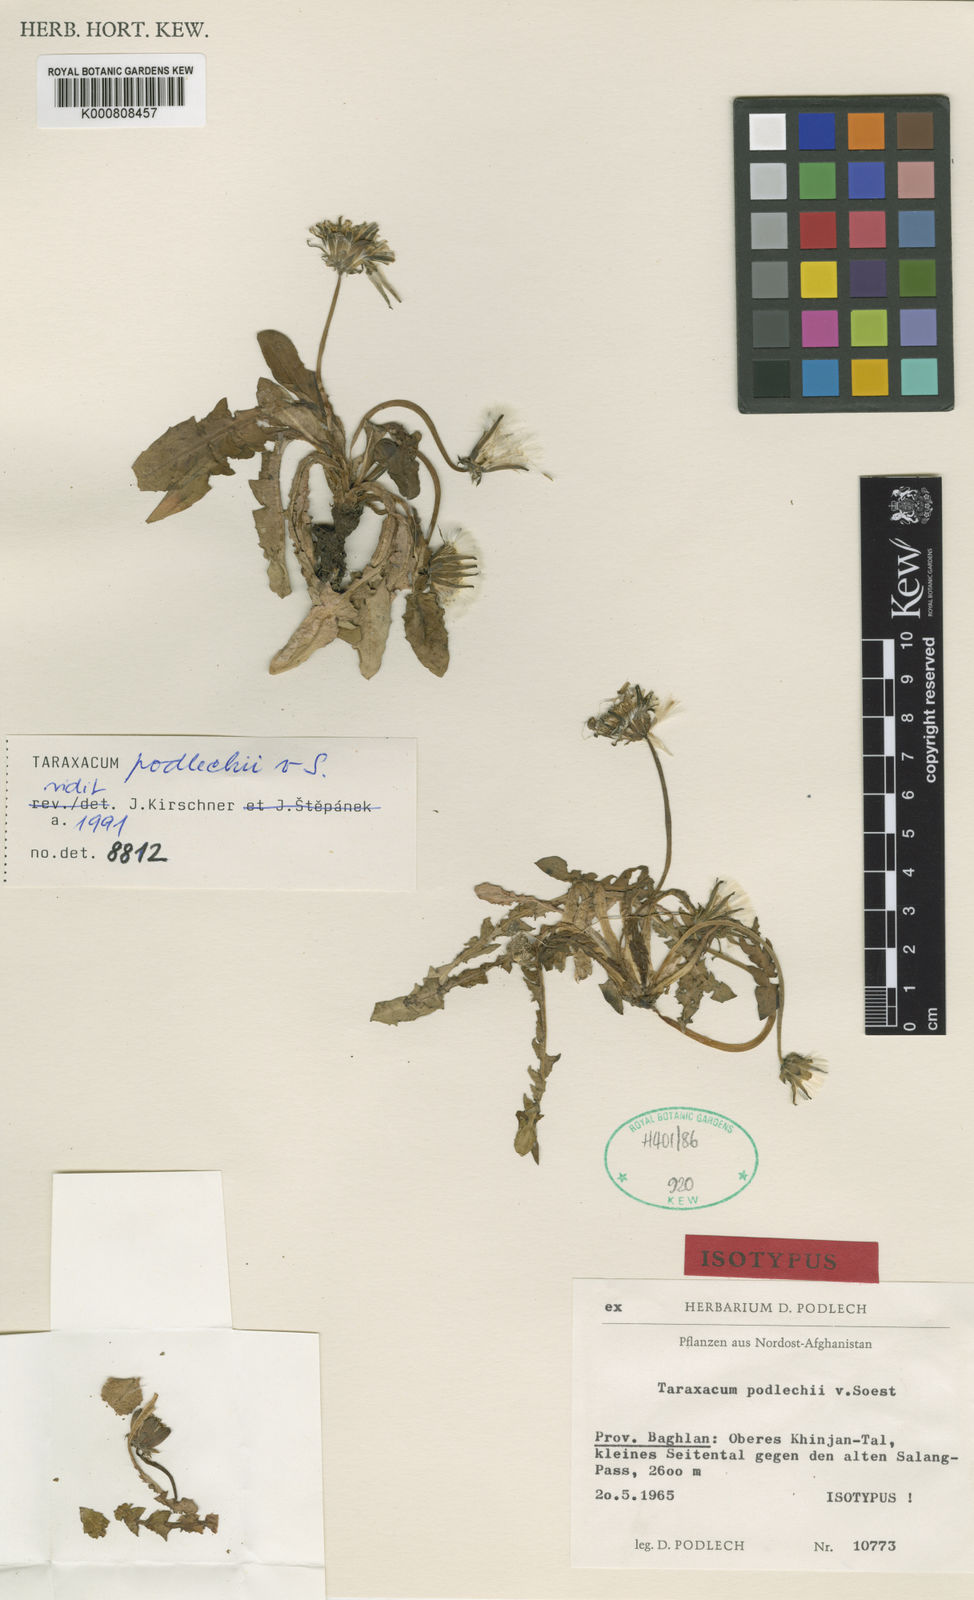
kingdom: Plantae
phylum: Tracheophyta
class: Magnoliopsida
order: Asterales
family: Asteraceae
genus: Taraxacum
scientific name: Taraxacum podlechii
